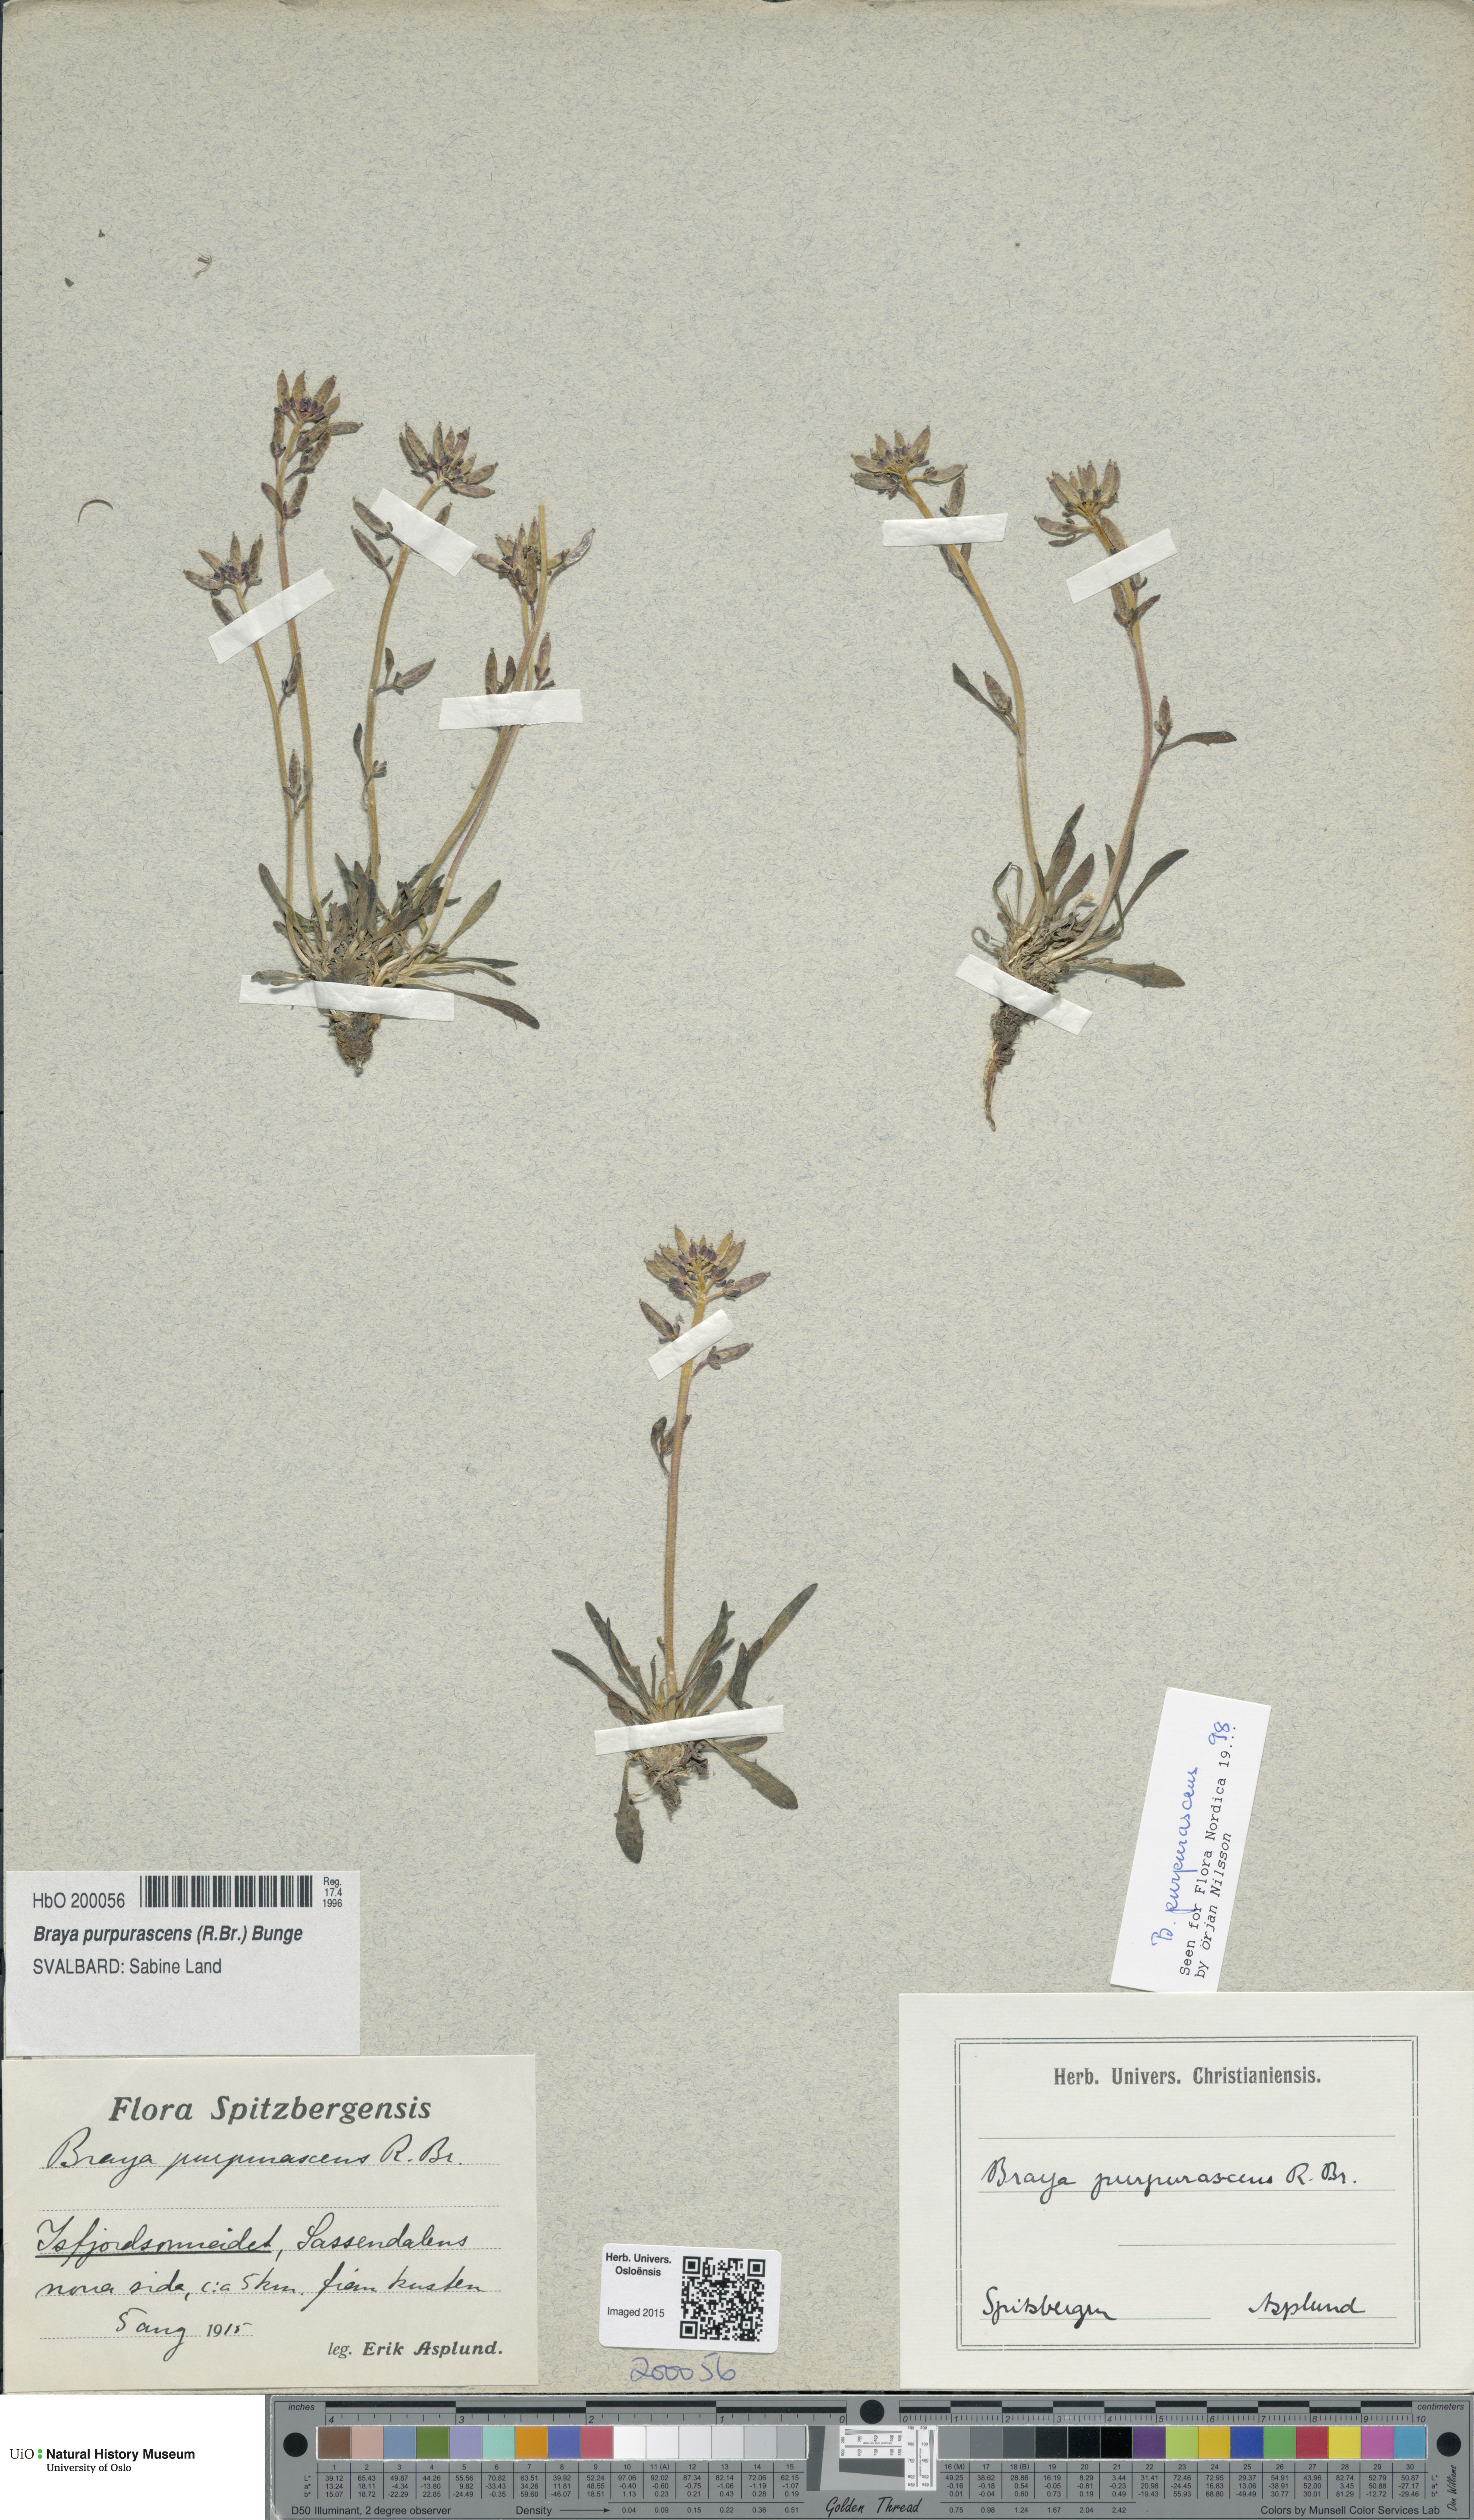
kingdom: Plantae
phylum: Tracheophyta
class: Magnoliopsida
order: Brassicales
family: Brassicaceae
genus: Braya
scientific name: Braya purpurascens
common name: Alpine braya
